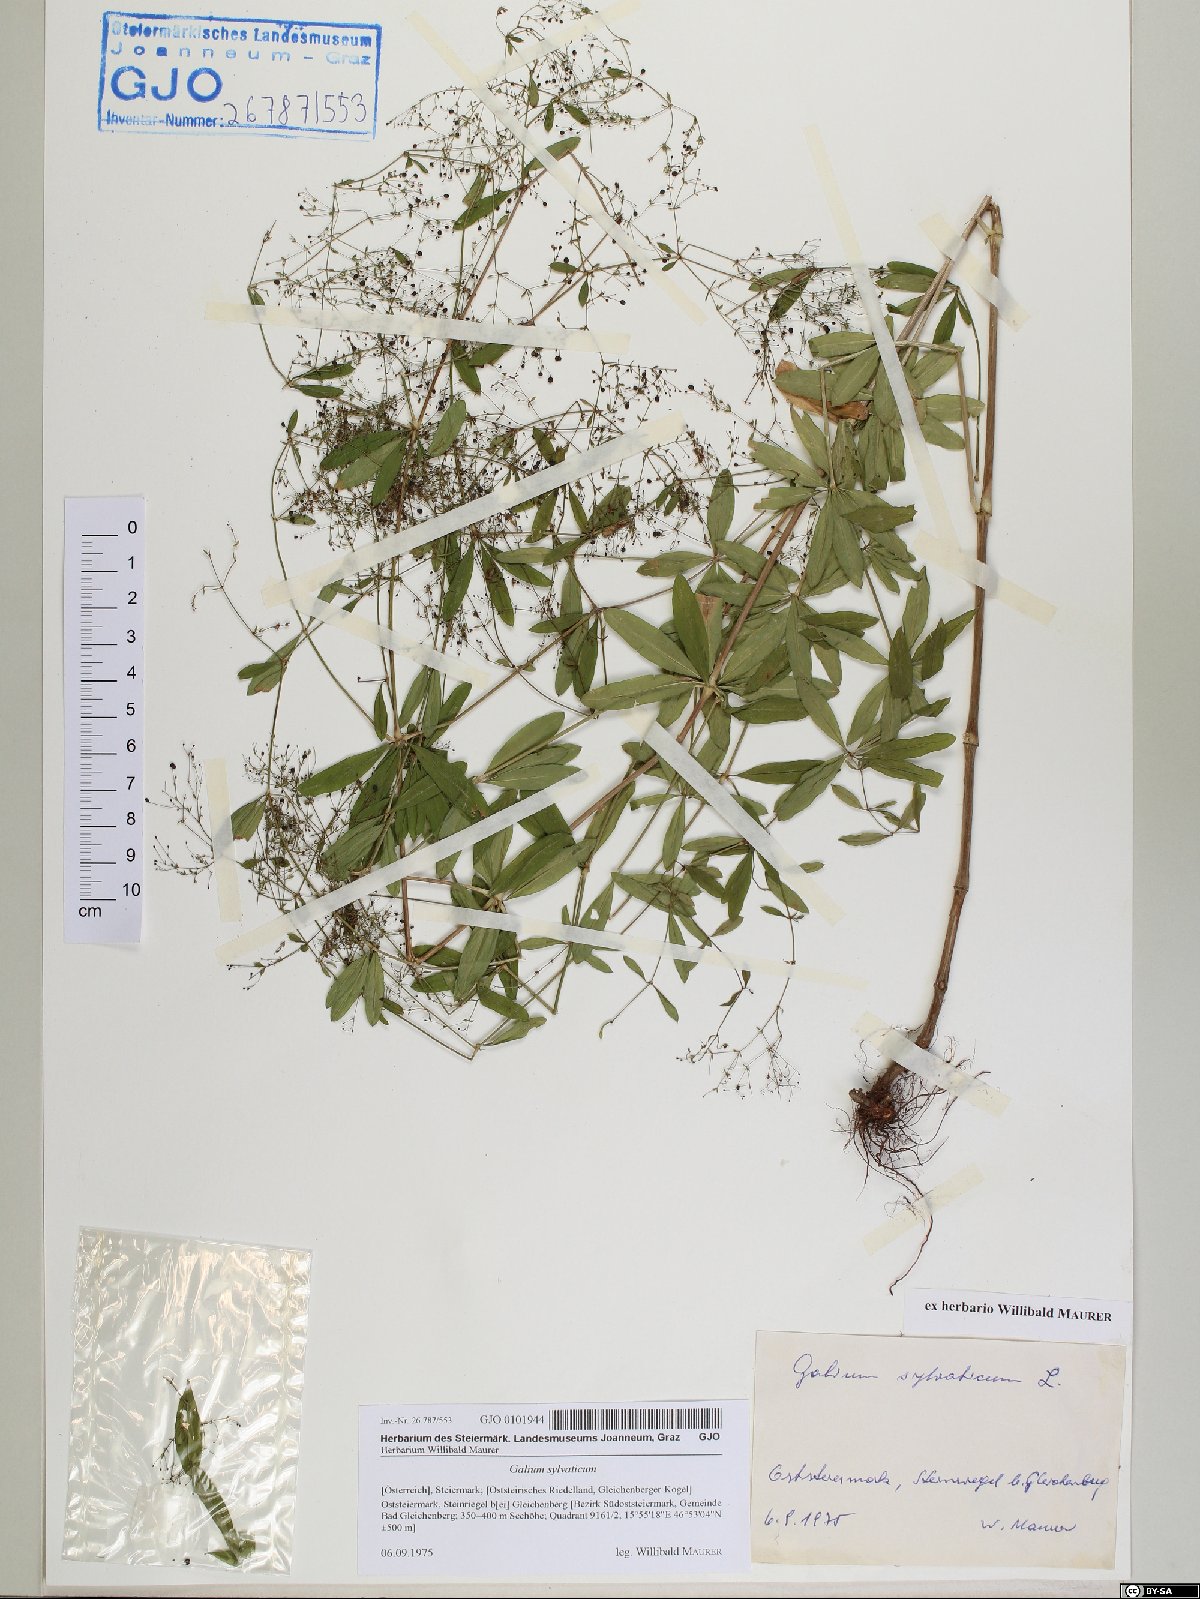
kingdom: Plantae
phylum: Tracheophyta
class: Magnoliopsida
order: Gentianales
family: Rubiaceae
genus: Galium
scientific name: Galium sylvaticum
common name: Wood bedstraw
